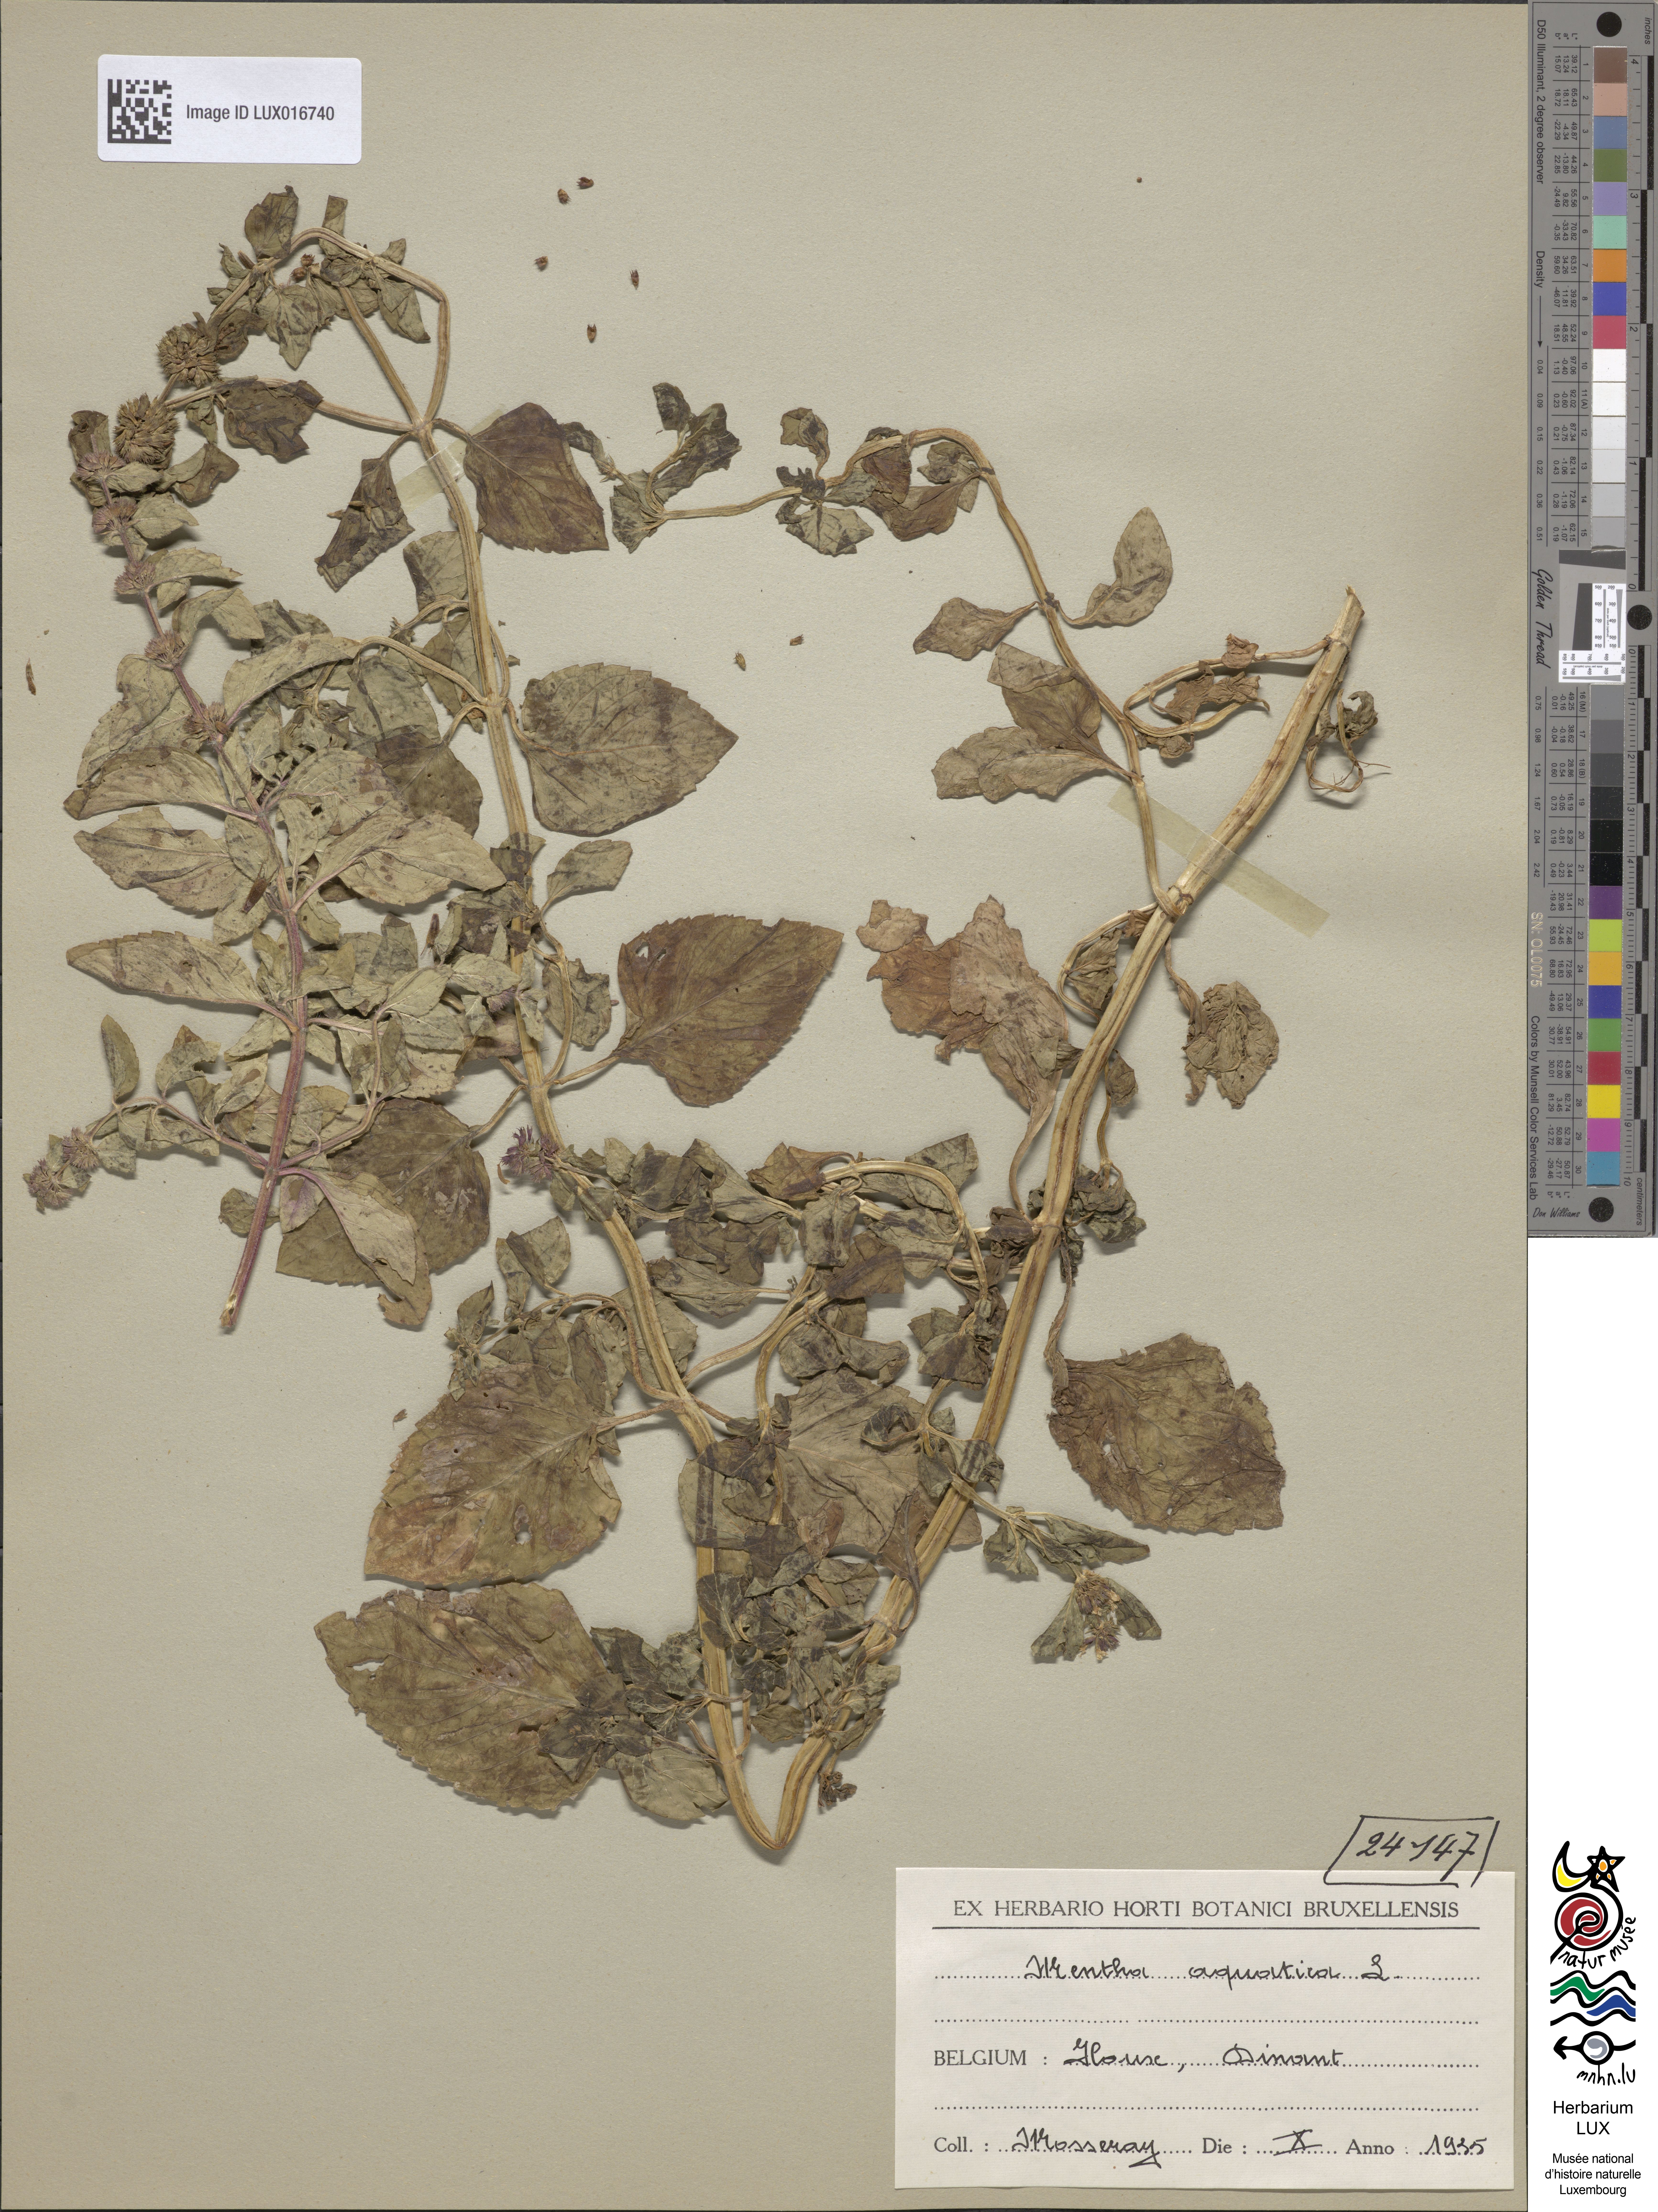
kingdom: Plantae
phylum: Tracheophyta
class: Magnoliopsida
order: Lamiales
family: Lamiaceae
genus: Mentha
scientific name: Mentha aquatica
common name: Water mint
